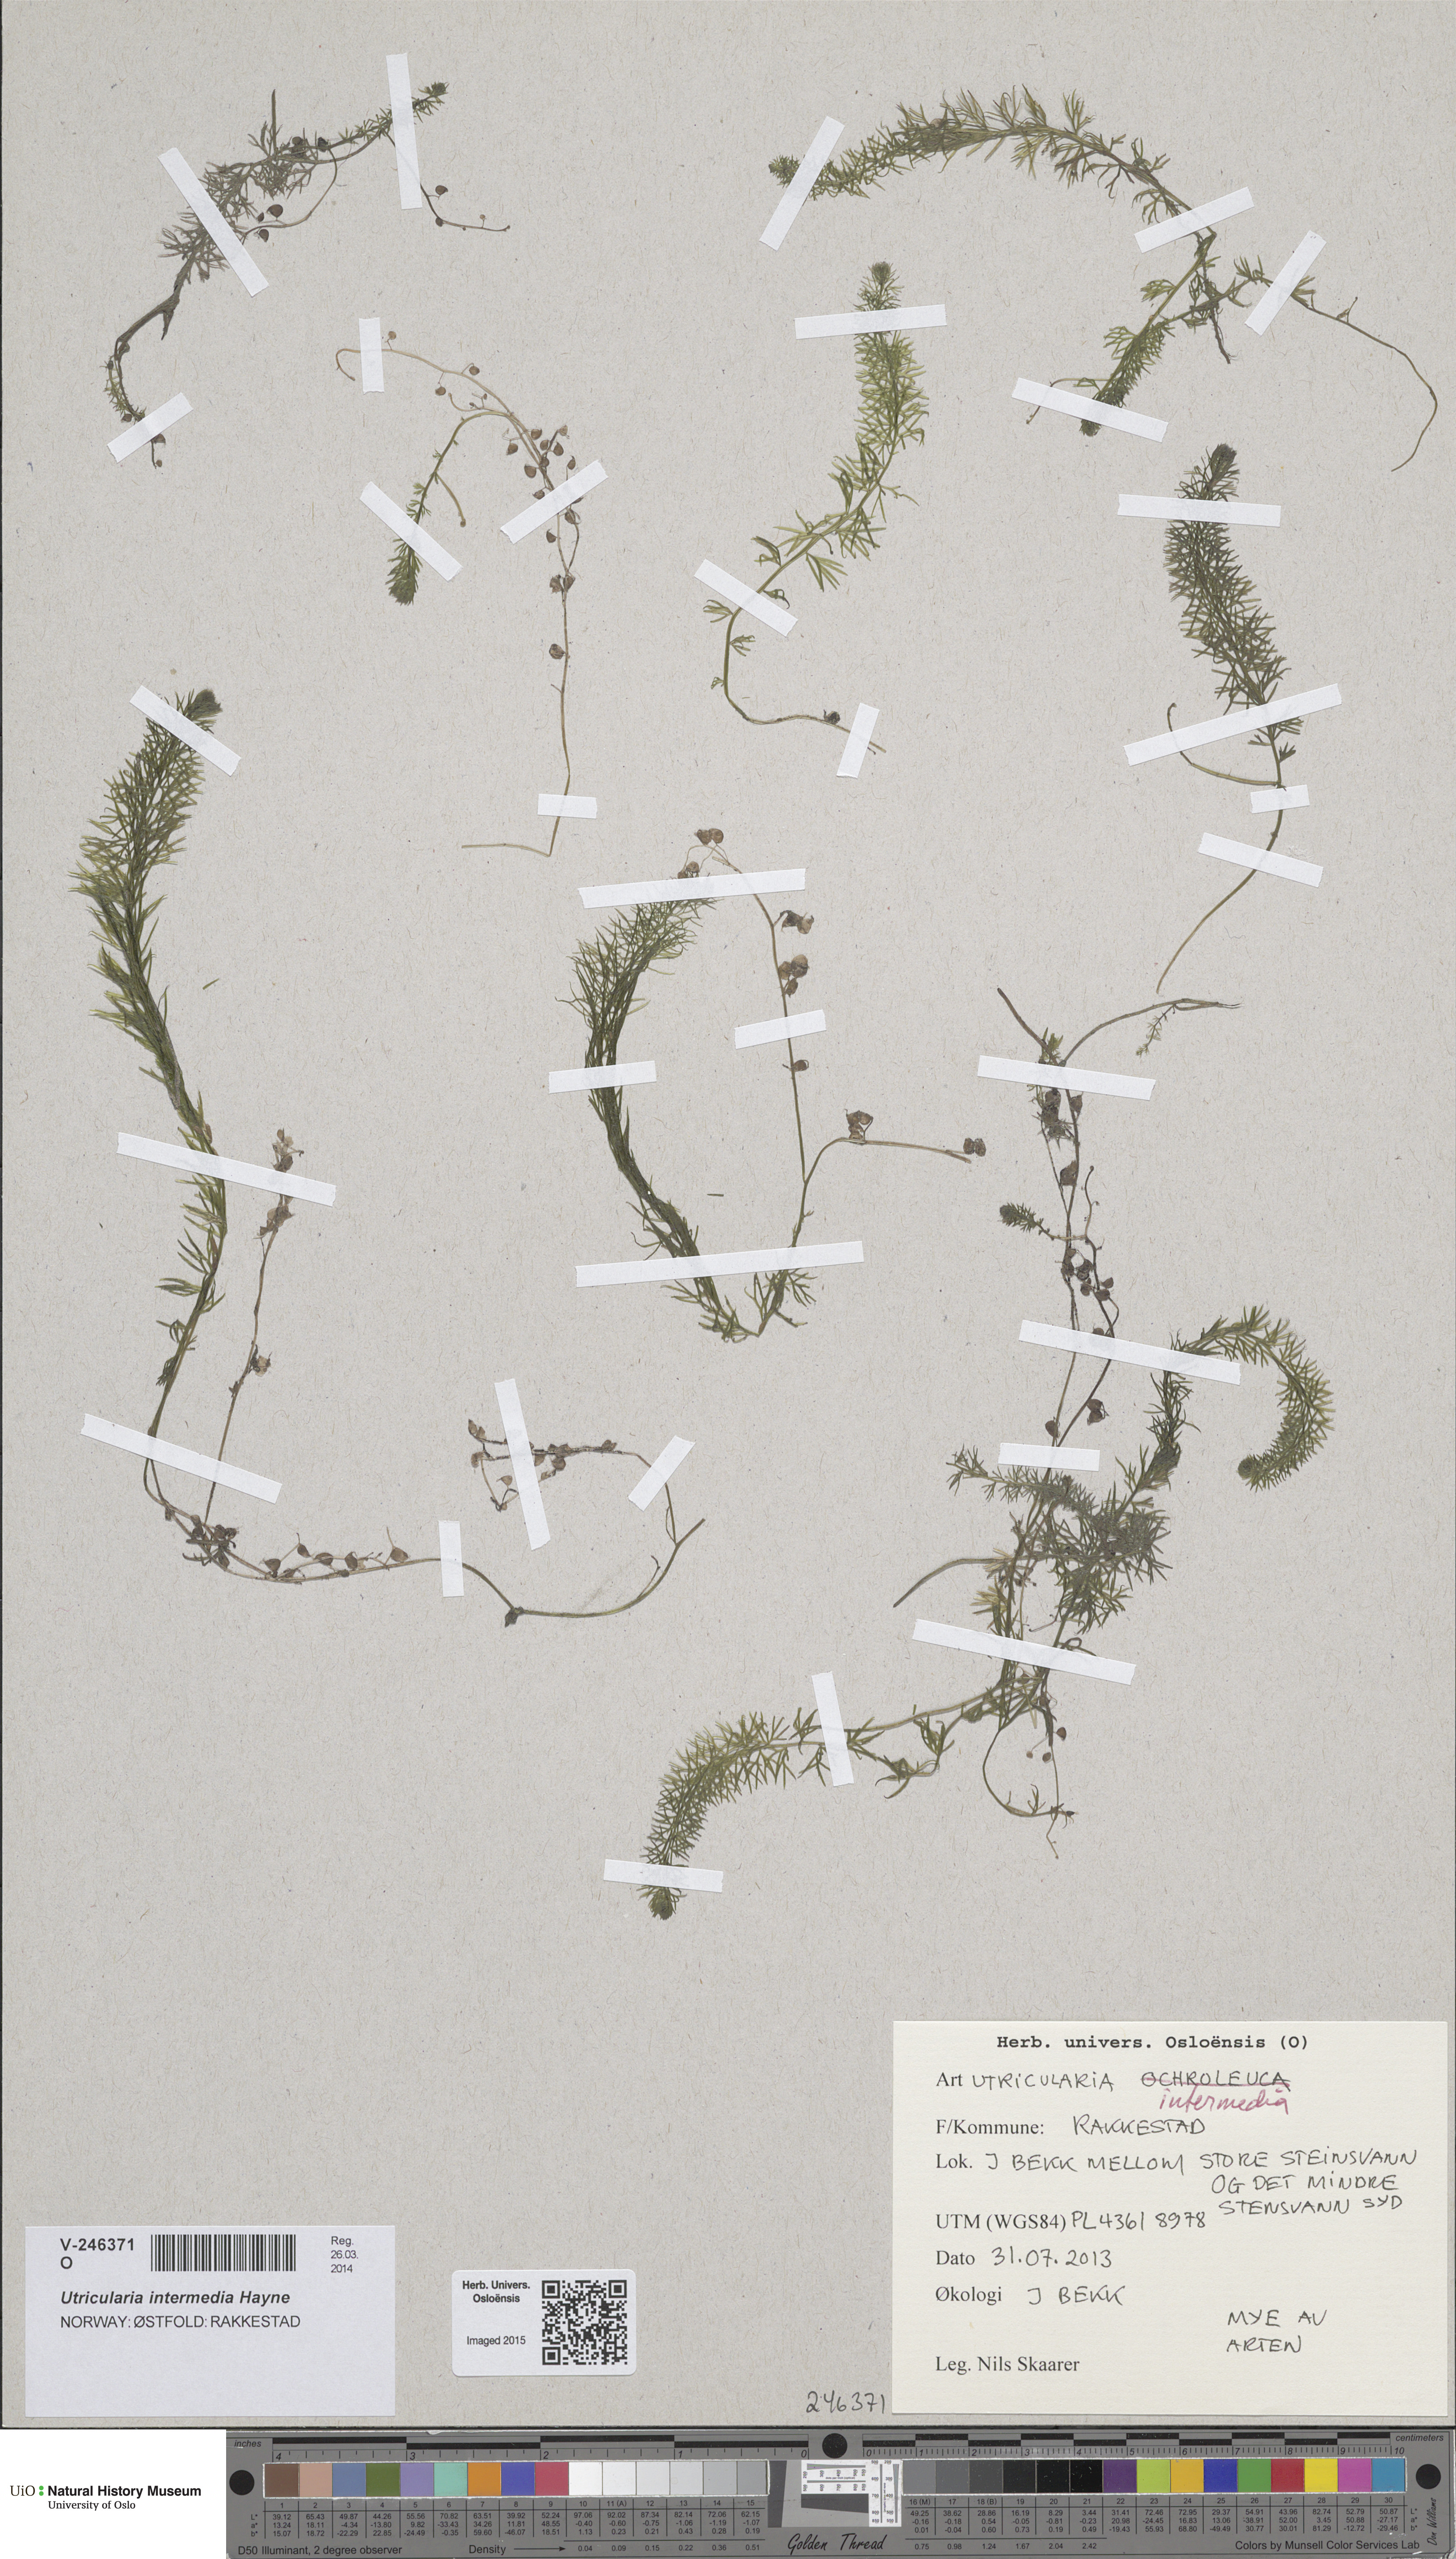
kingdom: Plantae
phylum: Tracheophyta
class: Magnoliopsida
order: Lamiales
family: Lentibulariaceae
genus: Utricularia
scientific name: Utricularia intermedia
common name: Intermediate bladderwort
